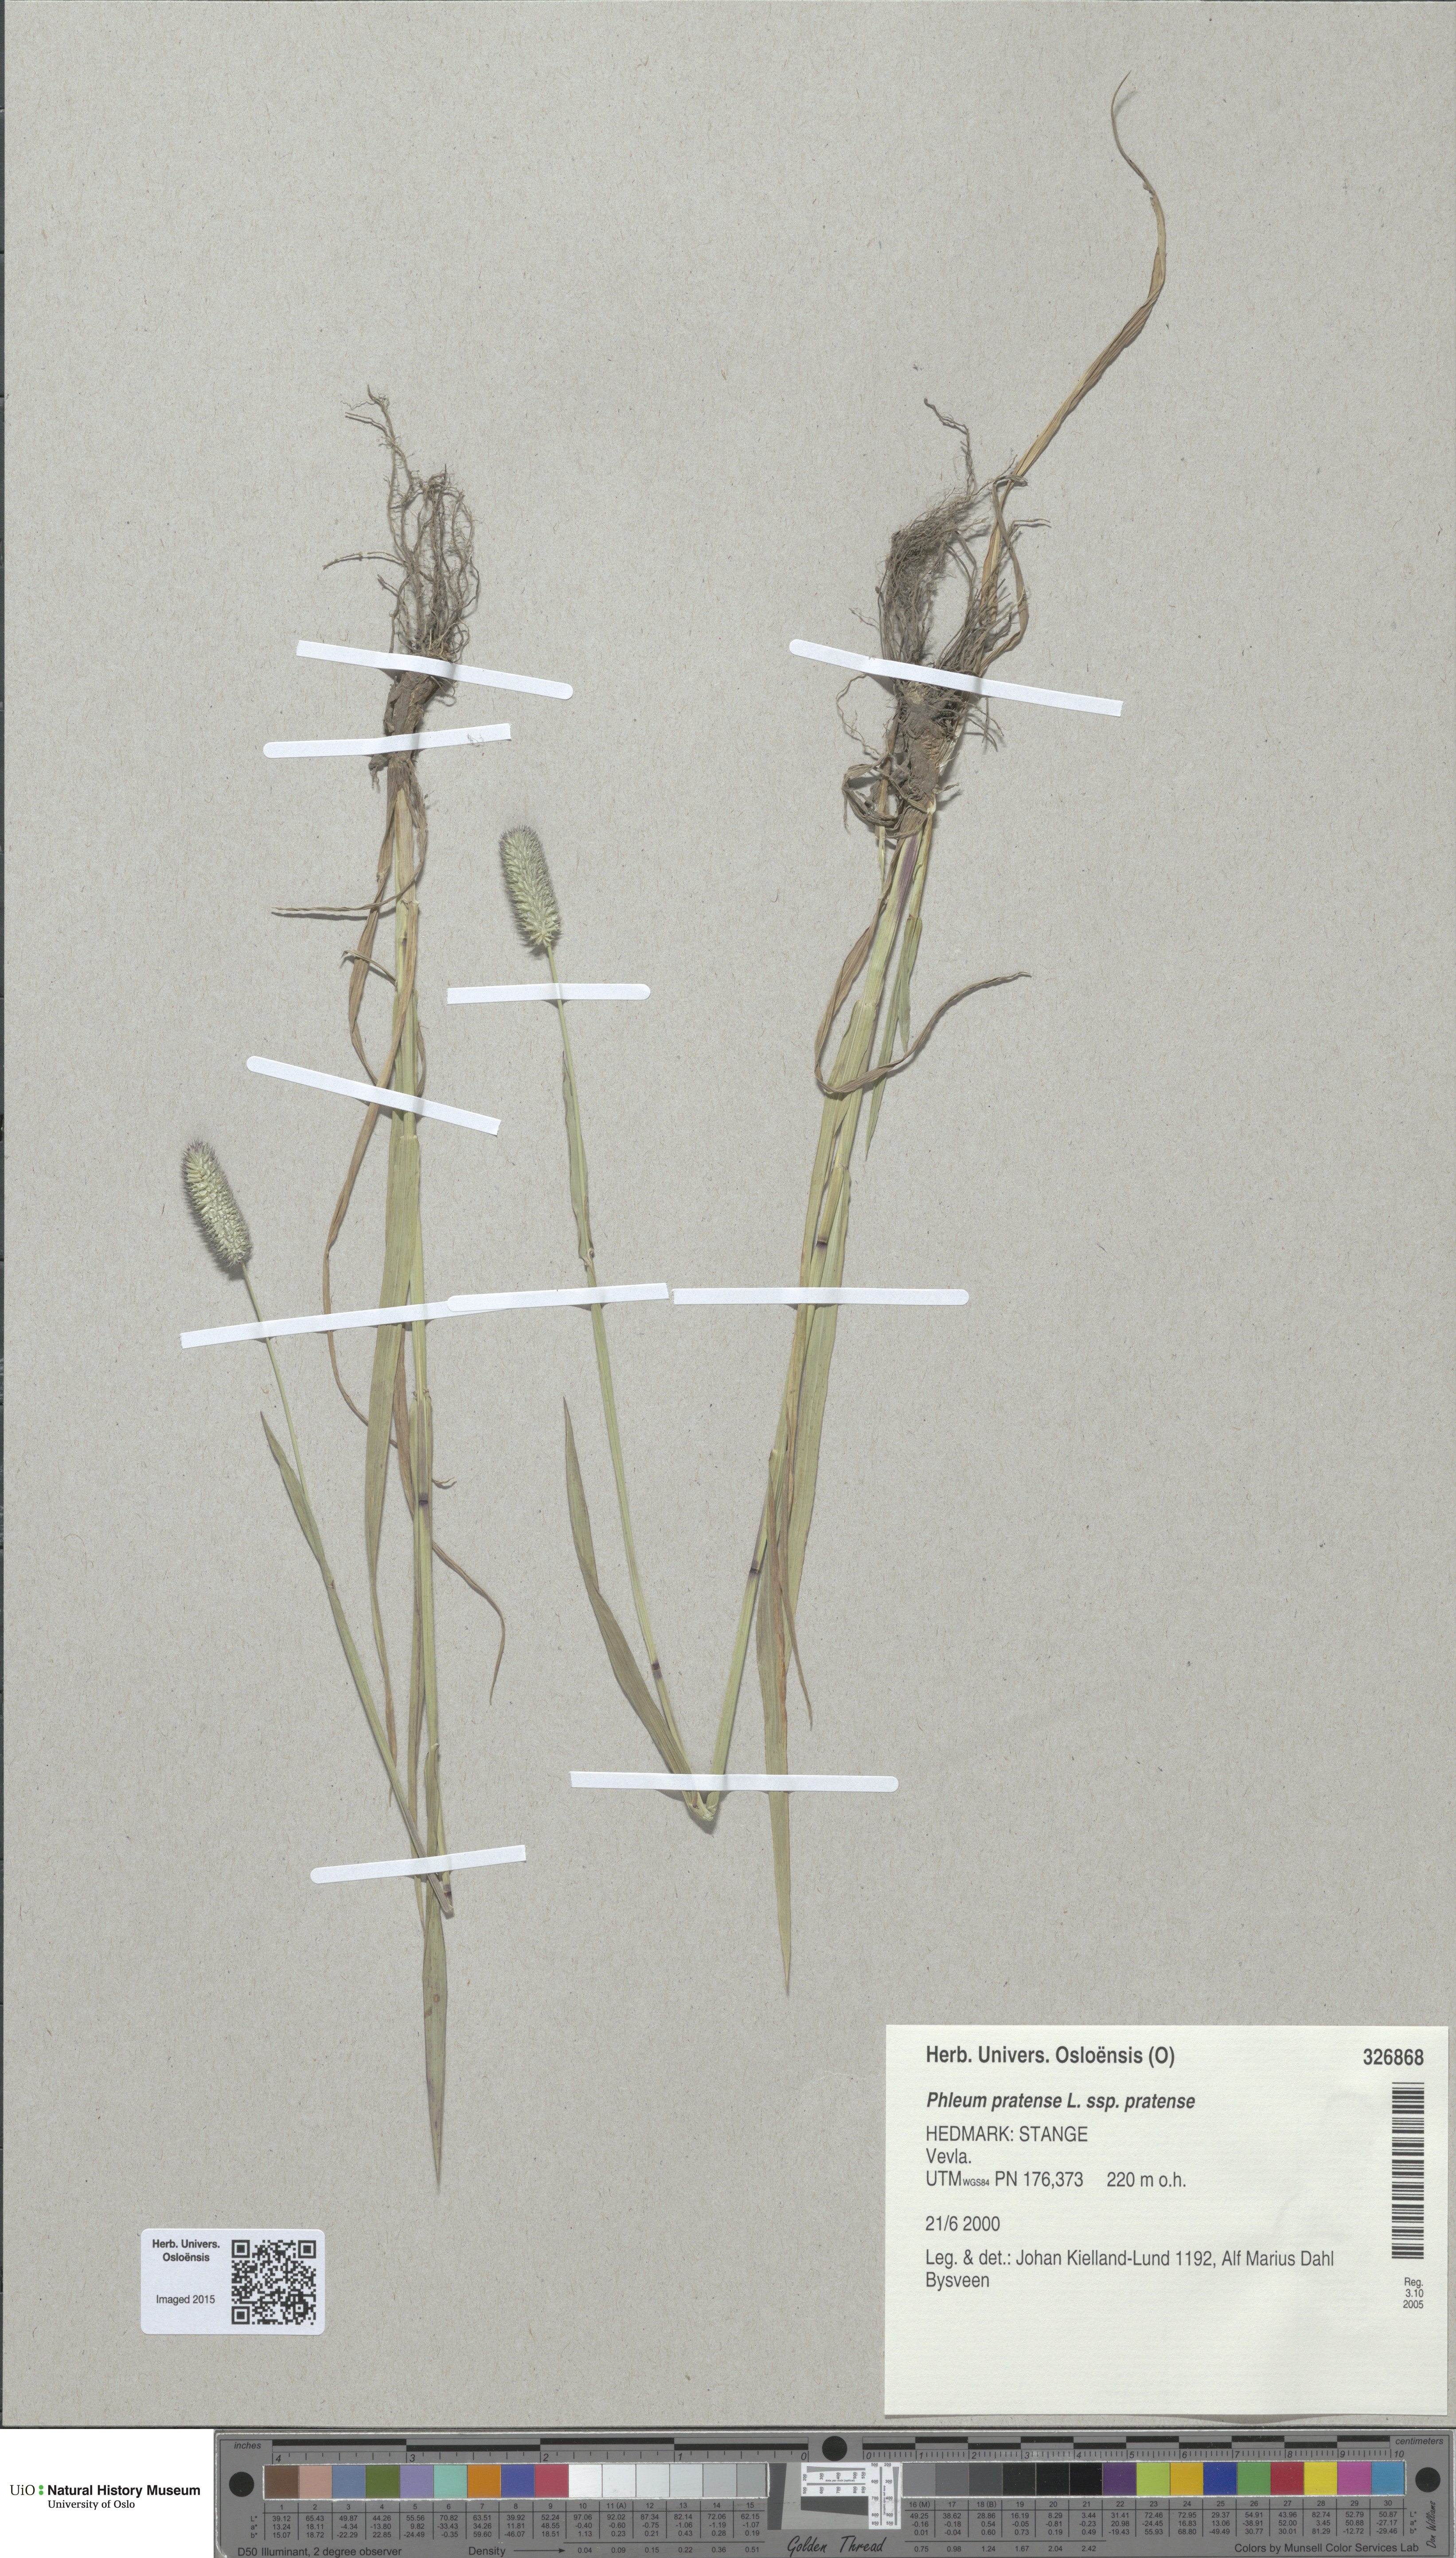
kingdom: Plantae
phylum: Tracheophyta
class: Liliopsida
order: Poales
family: Poaceae
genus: Phleum
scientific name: Phleum pratense
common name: Timothy grass
